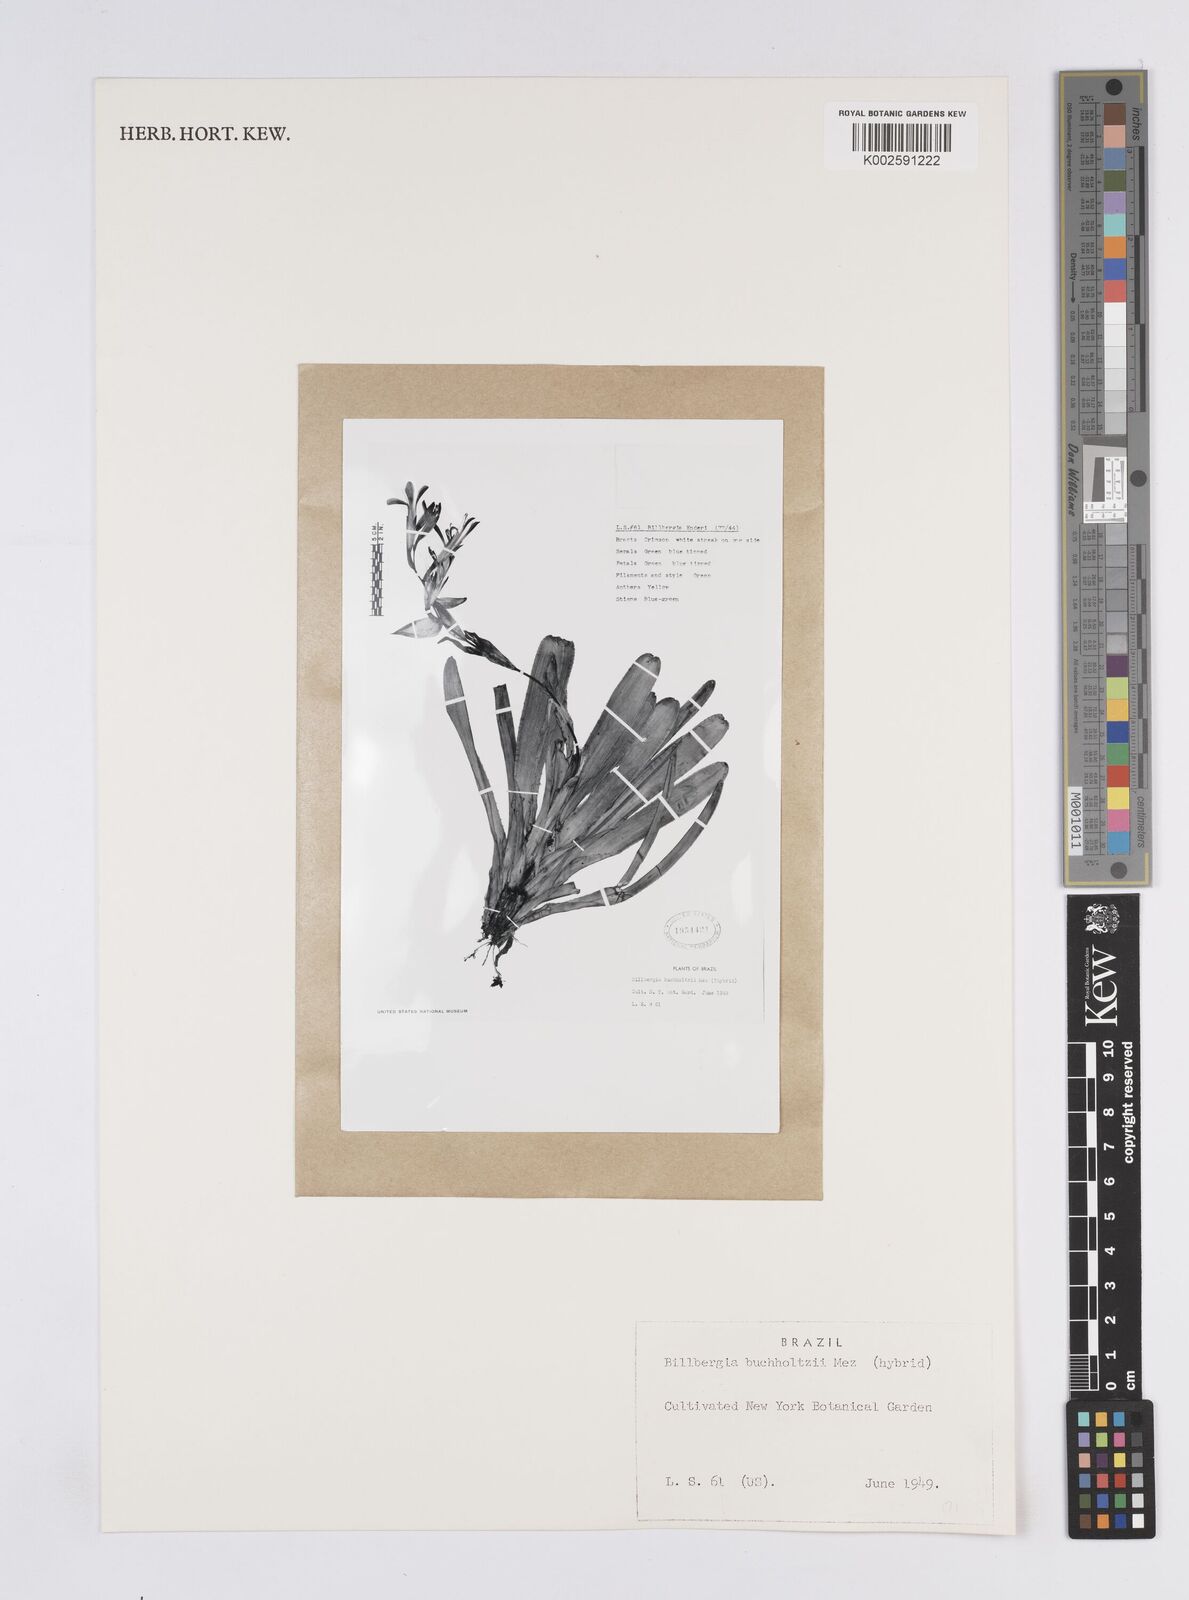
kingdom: Plantae
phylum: Tracheophyta
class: Liliopsida
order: Poales
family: Bromeliaceae
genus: Billbergia
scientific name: Billbergia buchholtzii
